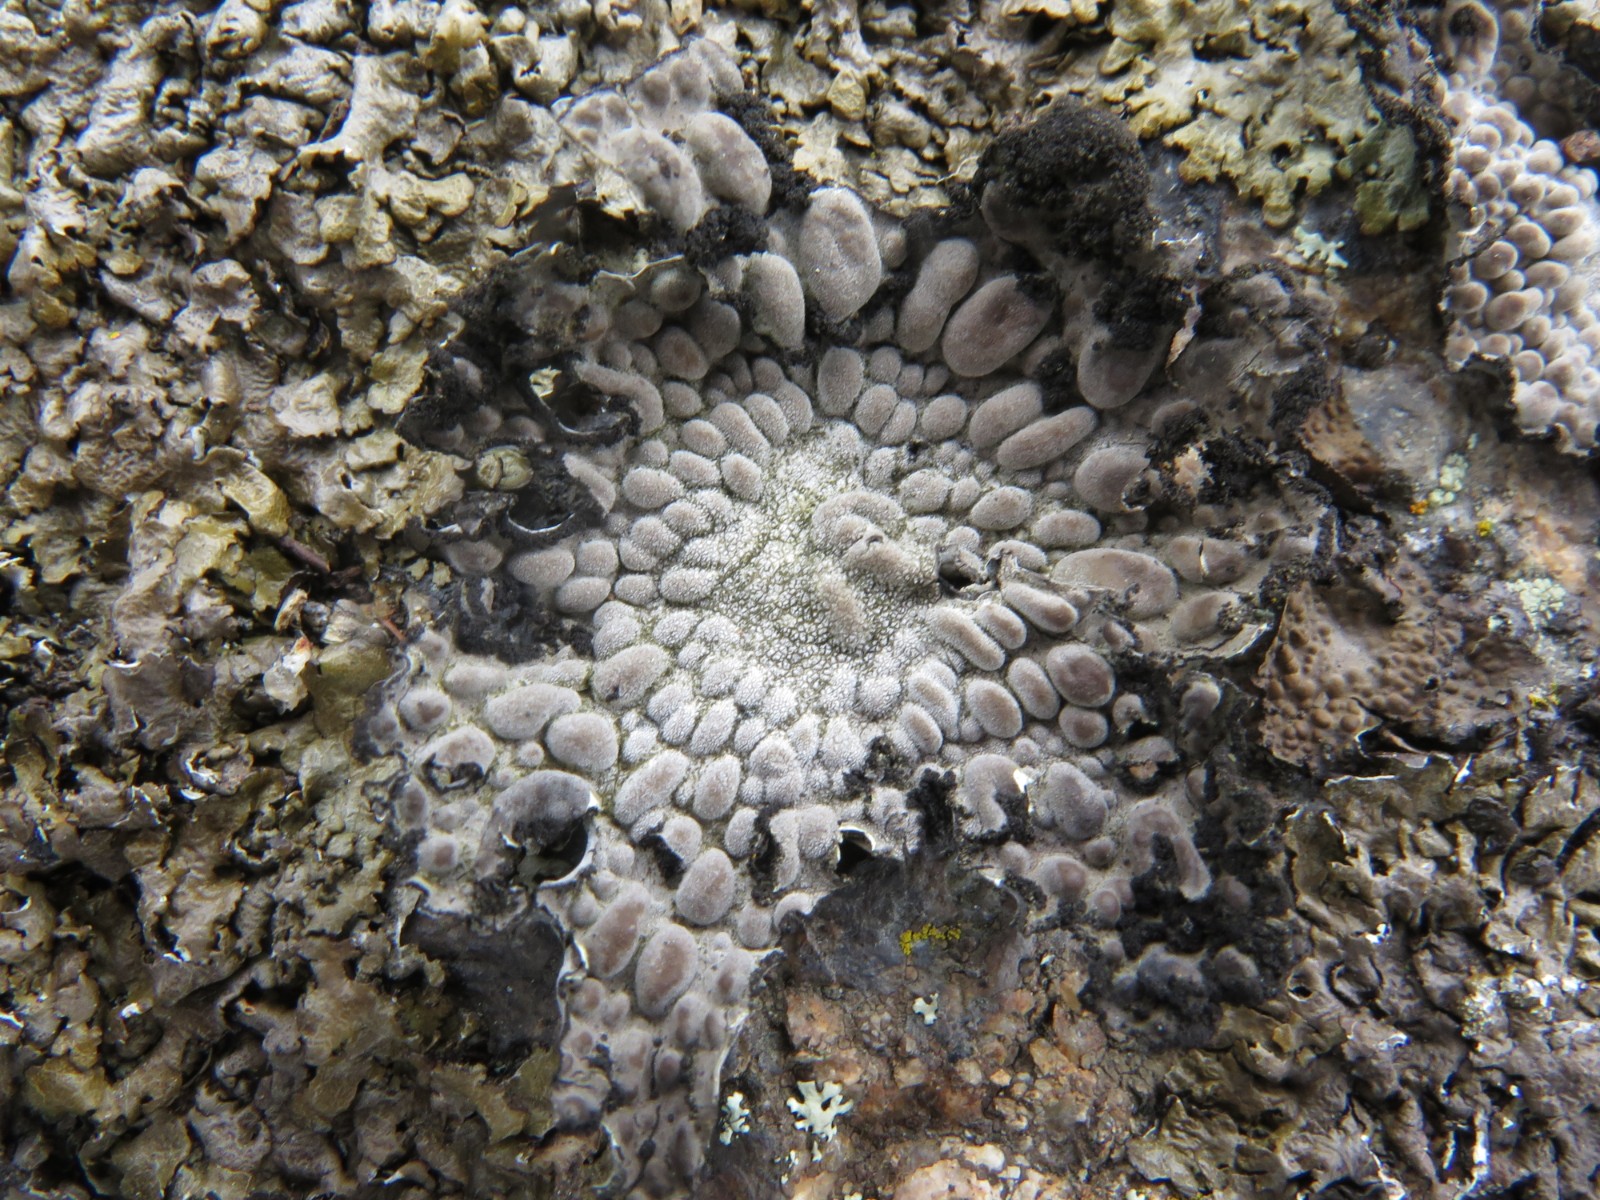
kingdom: Fungi
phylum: Ascomycota
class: Lecanoromycetes
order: Umbilicariales
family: Umbilicariaceae
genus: Lasallia
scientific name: Lasallia pustulata
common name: buklet navlelav
